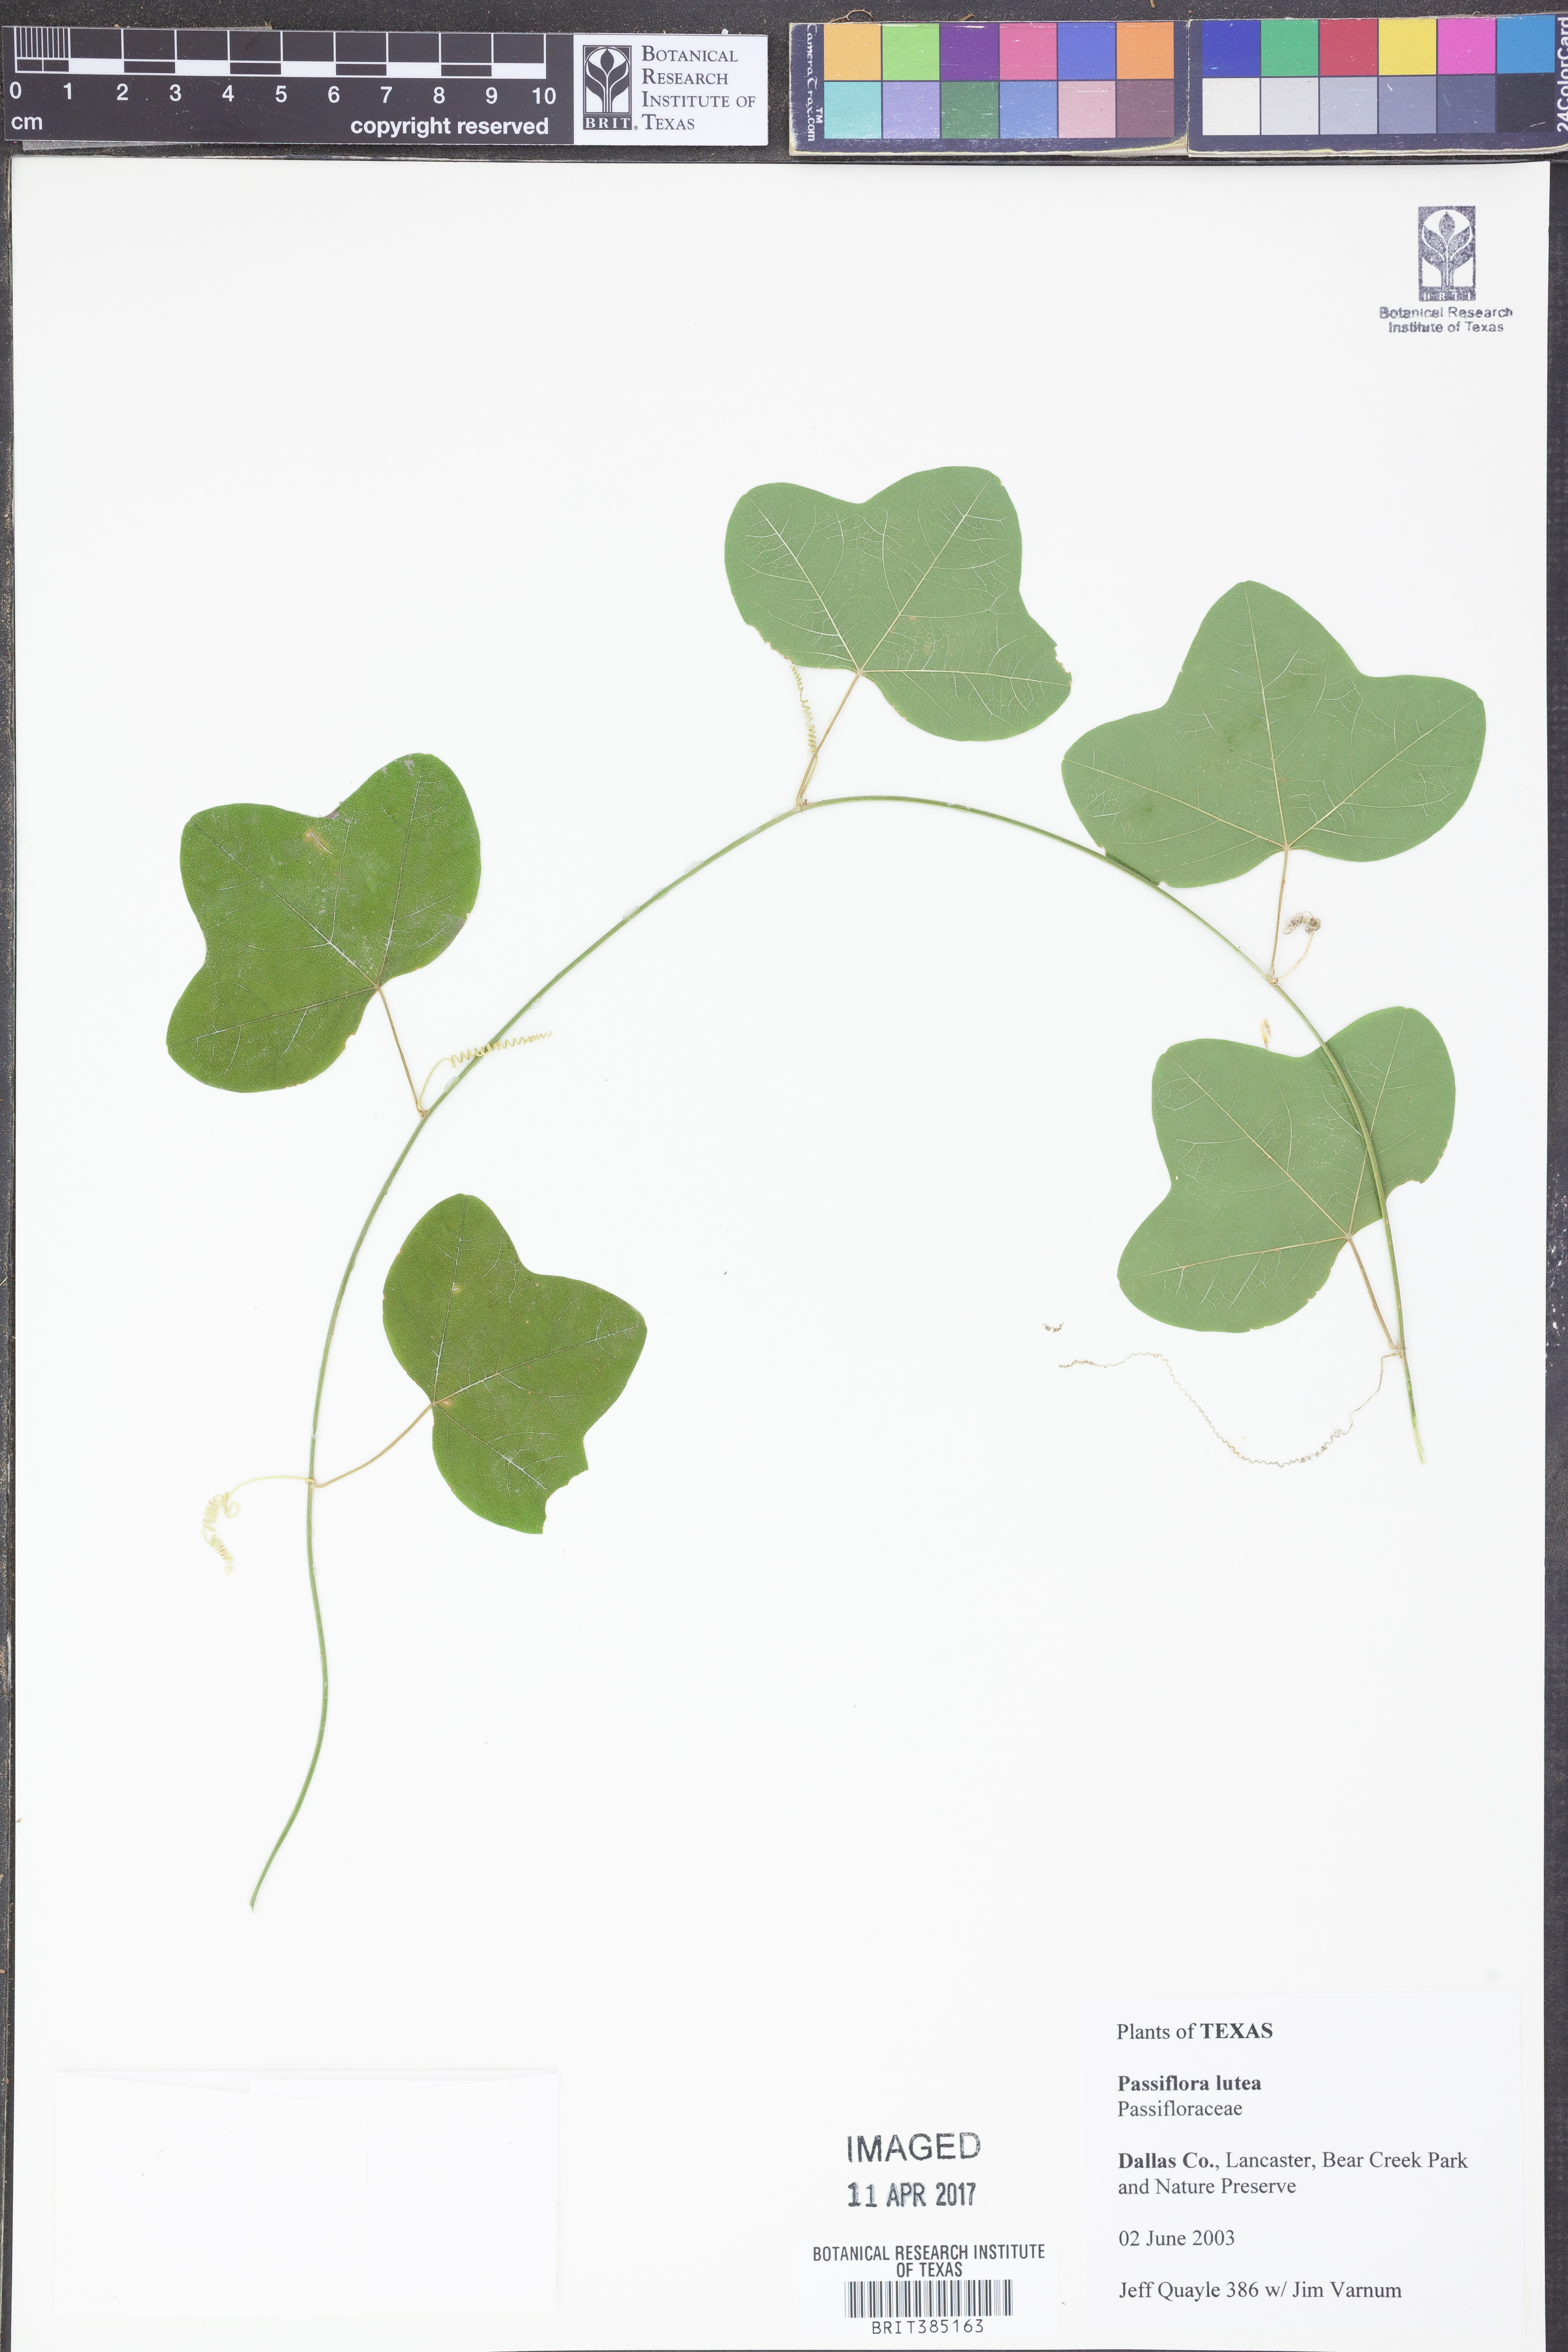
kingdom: Plantae
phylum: Tracheophyta
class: Magnoliopsida
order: Malpighiales
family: Passifloraceae
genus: Passiflora
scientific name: Passiflora lutea
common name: Yellow passionflower
